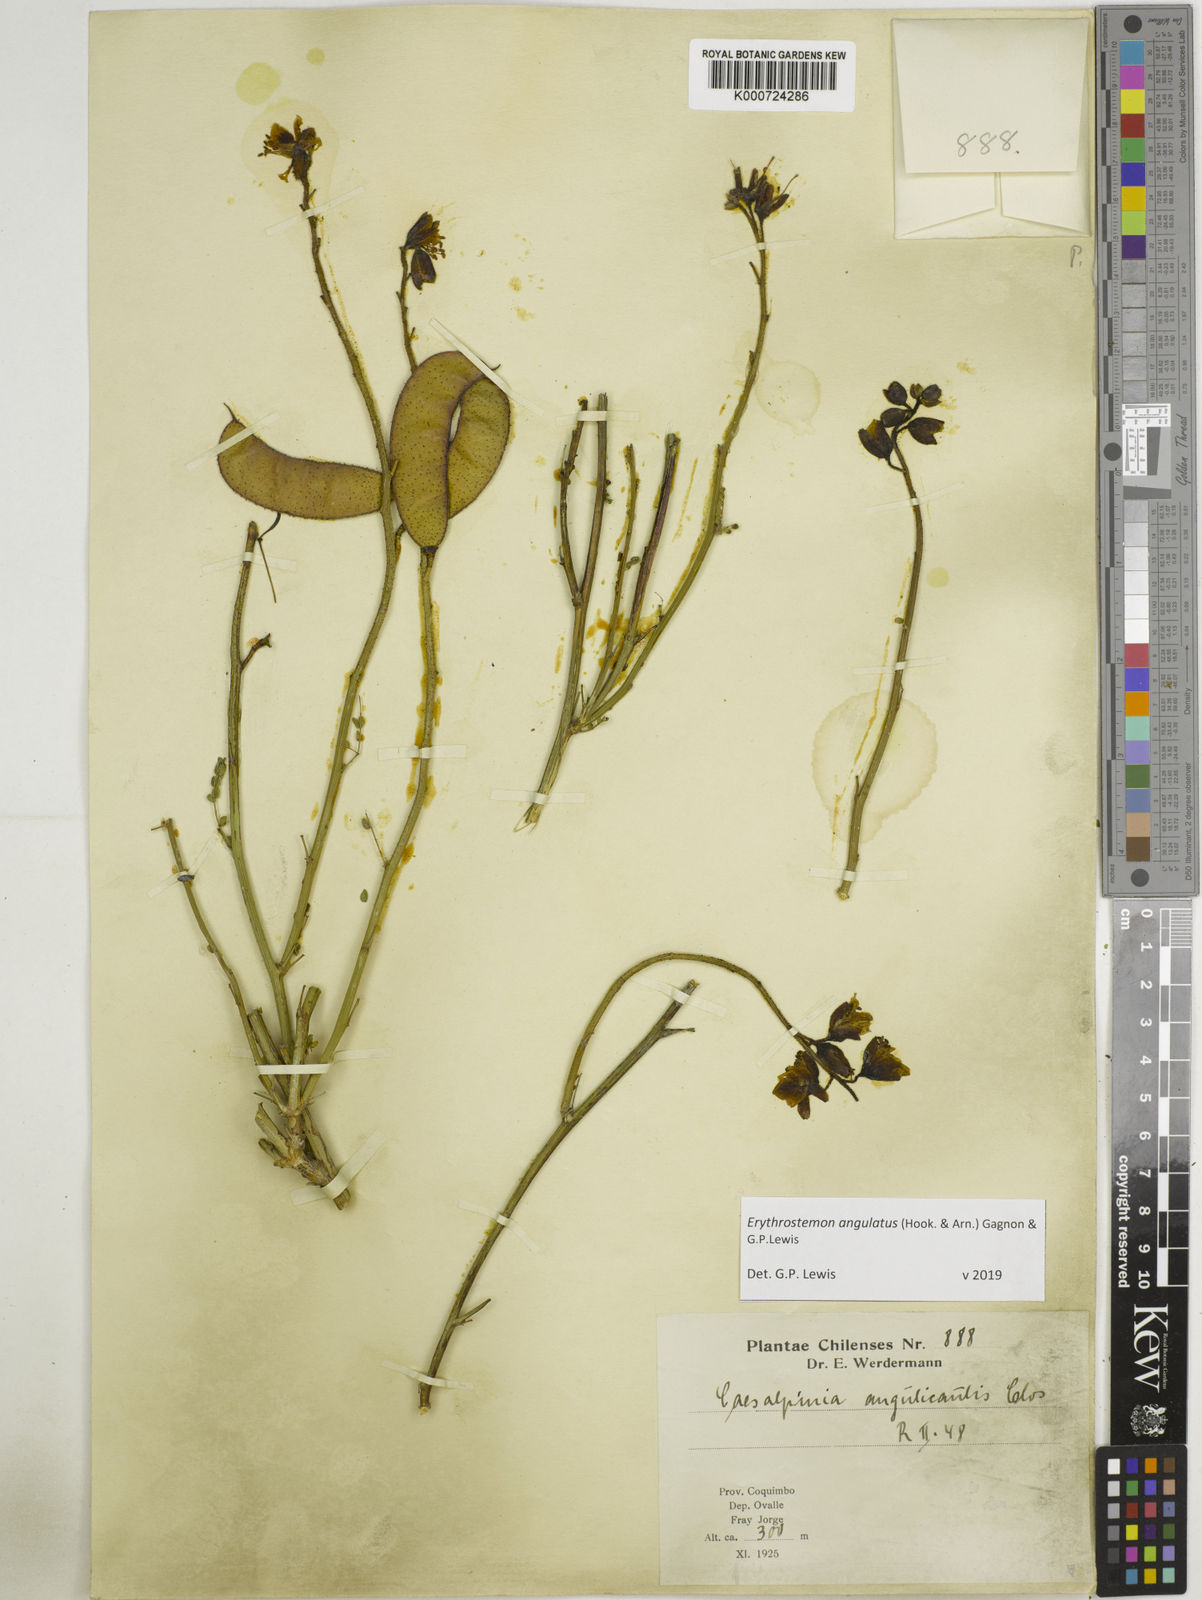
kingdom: Plantae
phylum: Tracheophyta
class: Magnoliopsida
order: Fabales
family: Fabaceae
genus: Caesalpinia
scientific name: Caesalpinia
